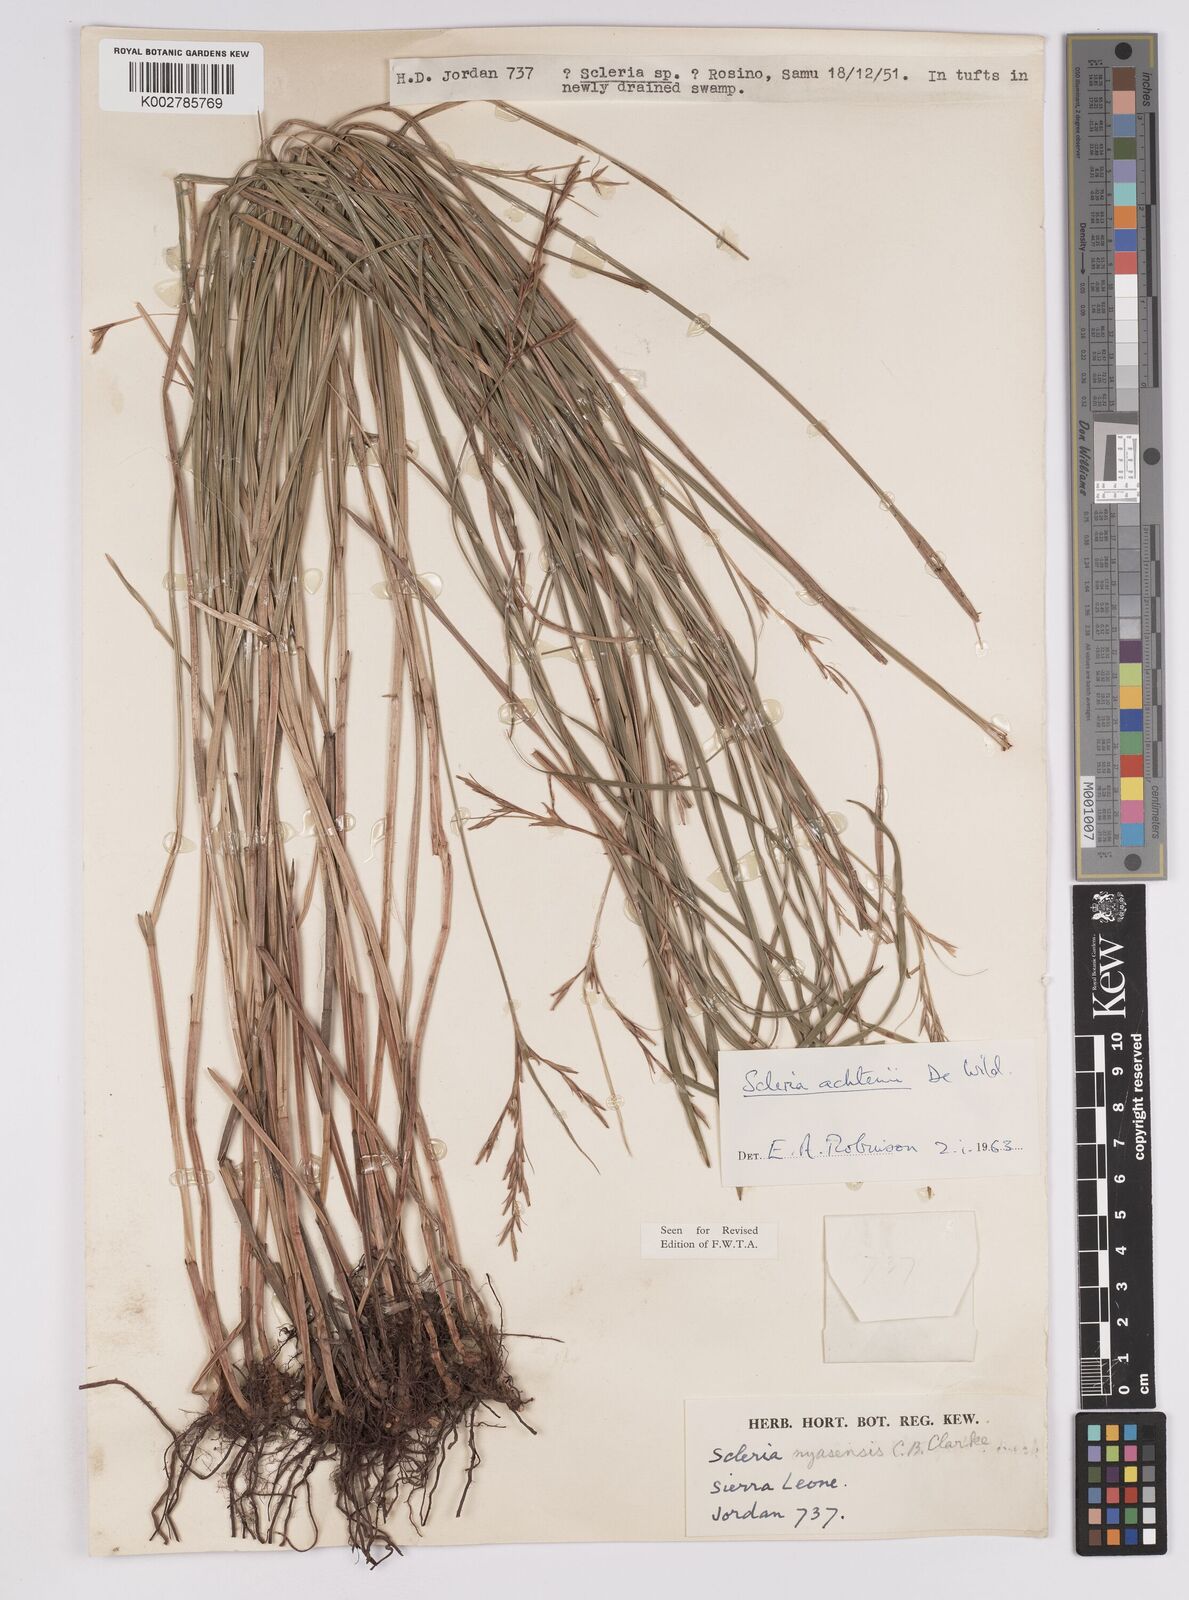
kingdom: Plantae
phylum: Tracheophyta
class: Liliopsida
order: Poales
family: Cyperaceae
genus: Scleria
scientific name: Scleria achtenii
